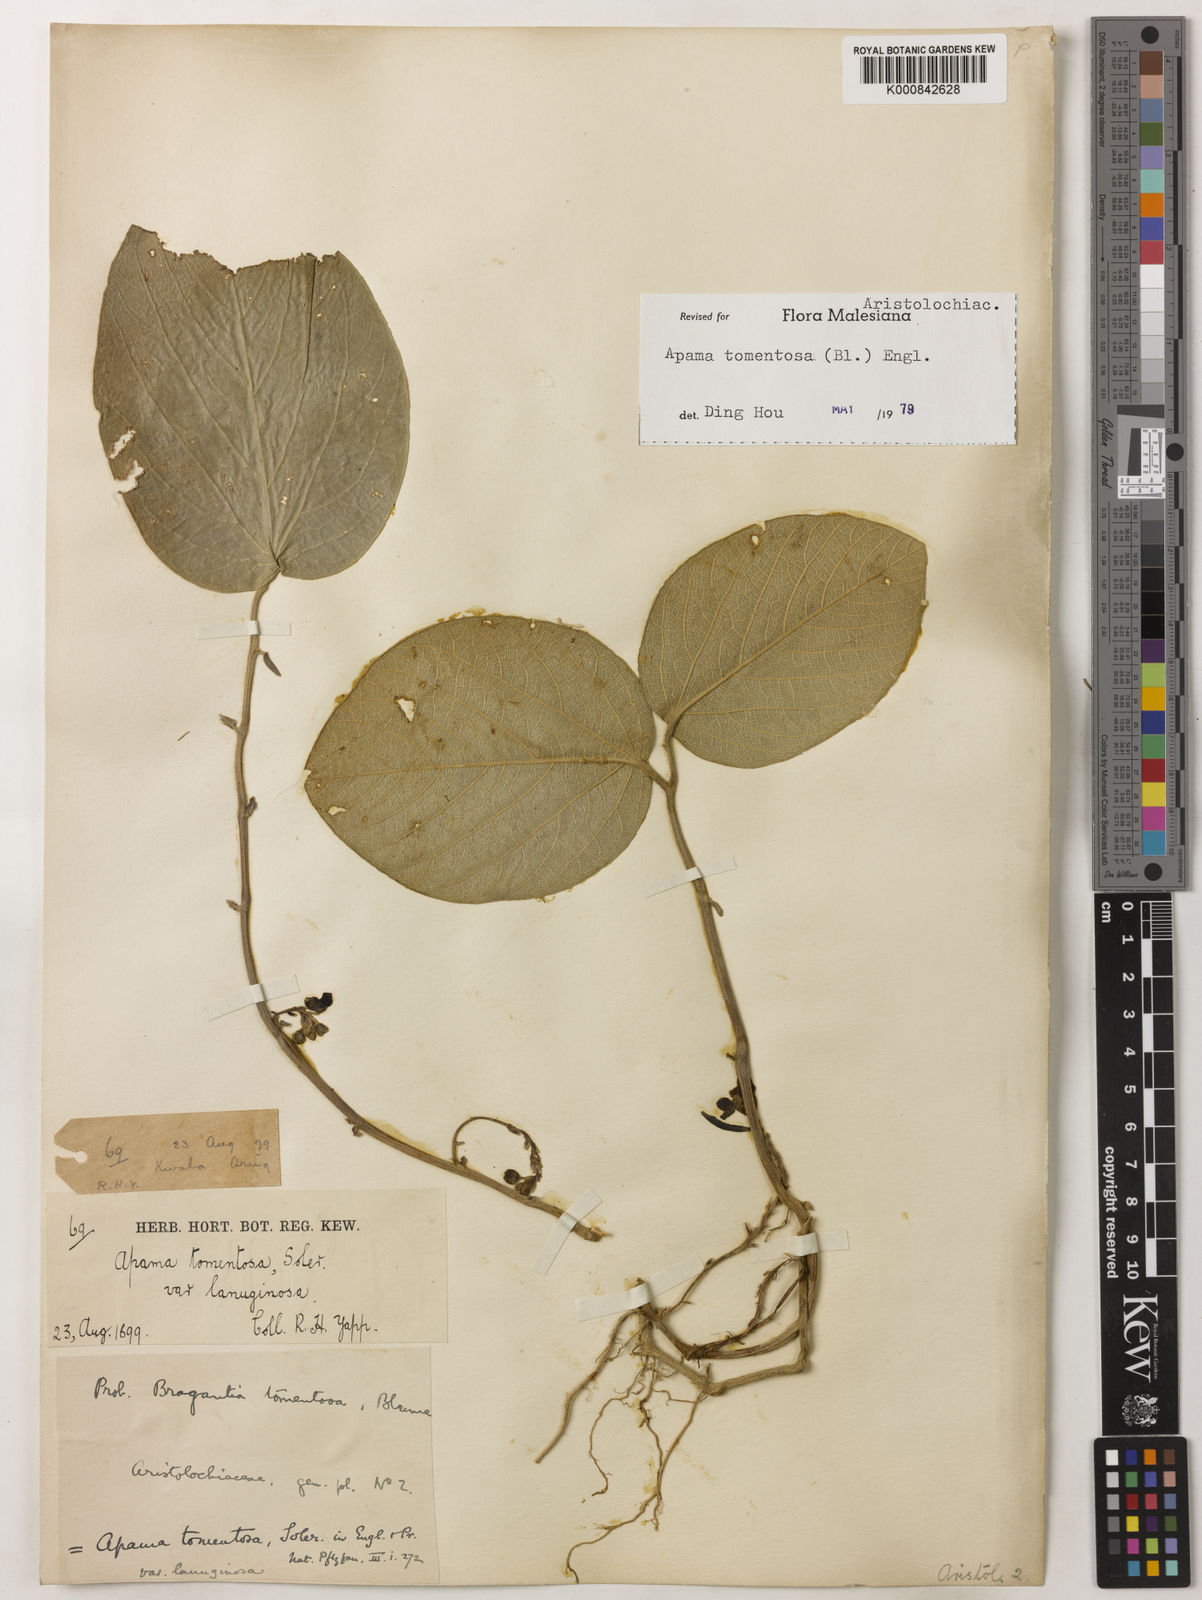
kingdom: Plantae
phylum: Tracheophyta
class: Magnoliopsida
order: Piperales
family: Aristolochiaceae
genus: Thottea
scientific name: Thottea tomentosa
